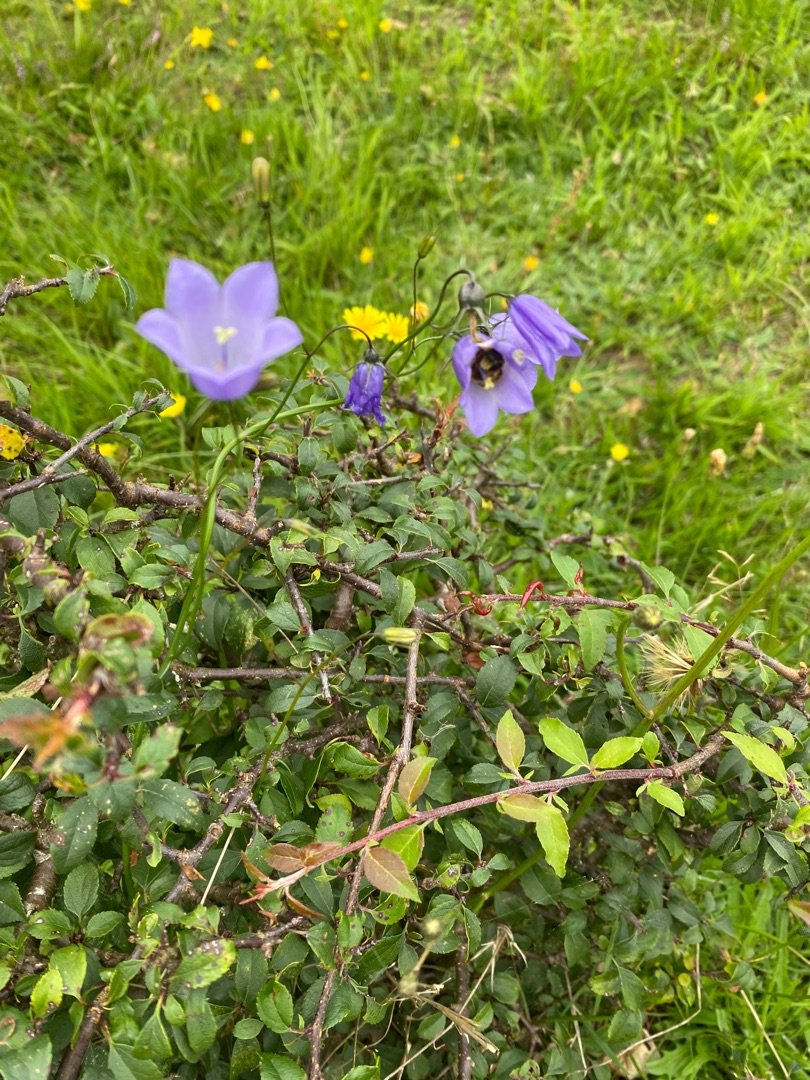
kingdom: Plantae
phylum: Tracheophyta
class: Magnoliopsida
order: Asterales
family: Campanulaceae
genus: Campanula
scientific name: Campanula rotundifolia
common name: Liden klokke
